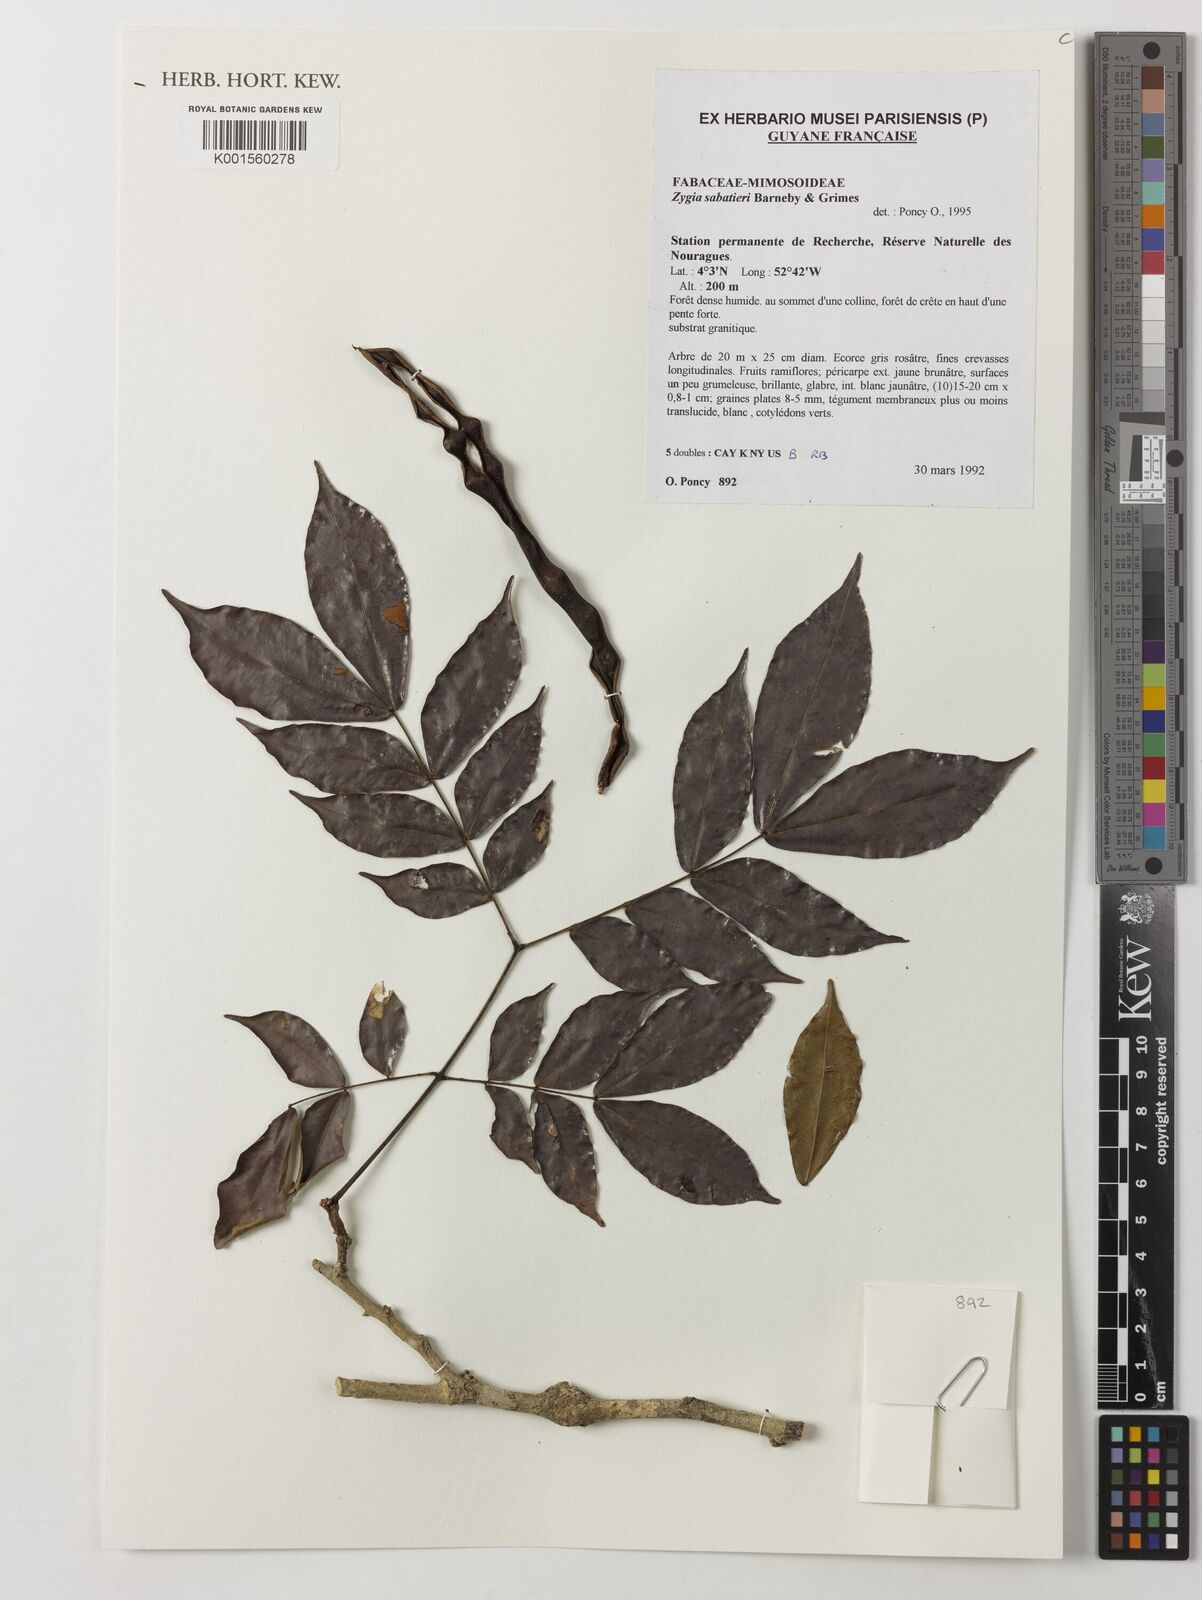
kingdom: Plantae
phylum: Tracheophyta
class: Magnoliopsida
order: Fabales
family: Fabaceae
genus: Zygia
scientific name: Zygia sabatieri
